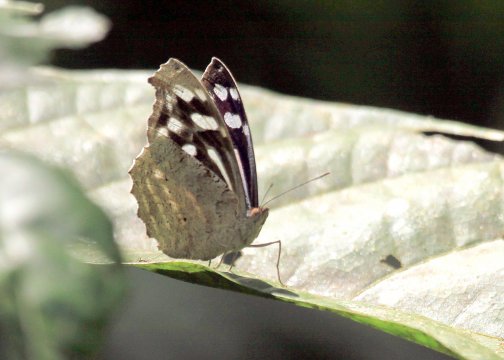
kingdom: Animalia
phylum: Arthropoda
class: Insecta
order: Lepidoptera
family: Nymphalidae
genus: Myscelia
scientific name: Myscelia cyaniris
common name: Whitened Bluewing
